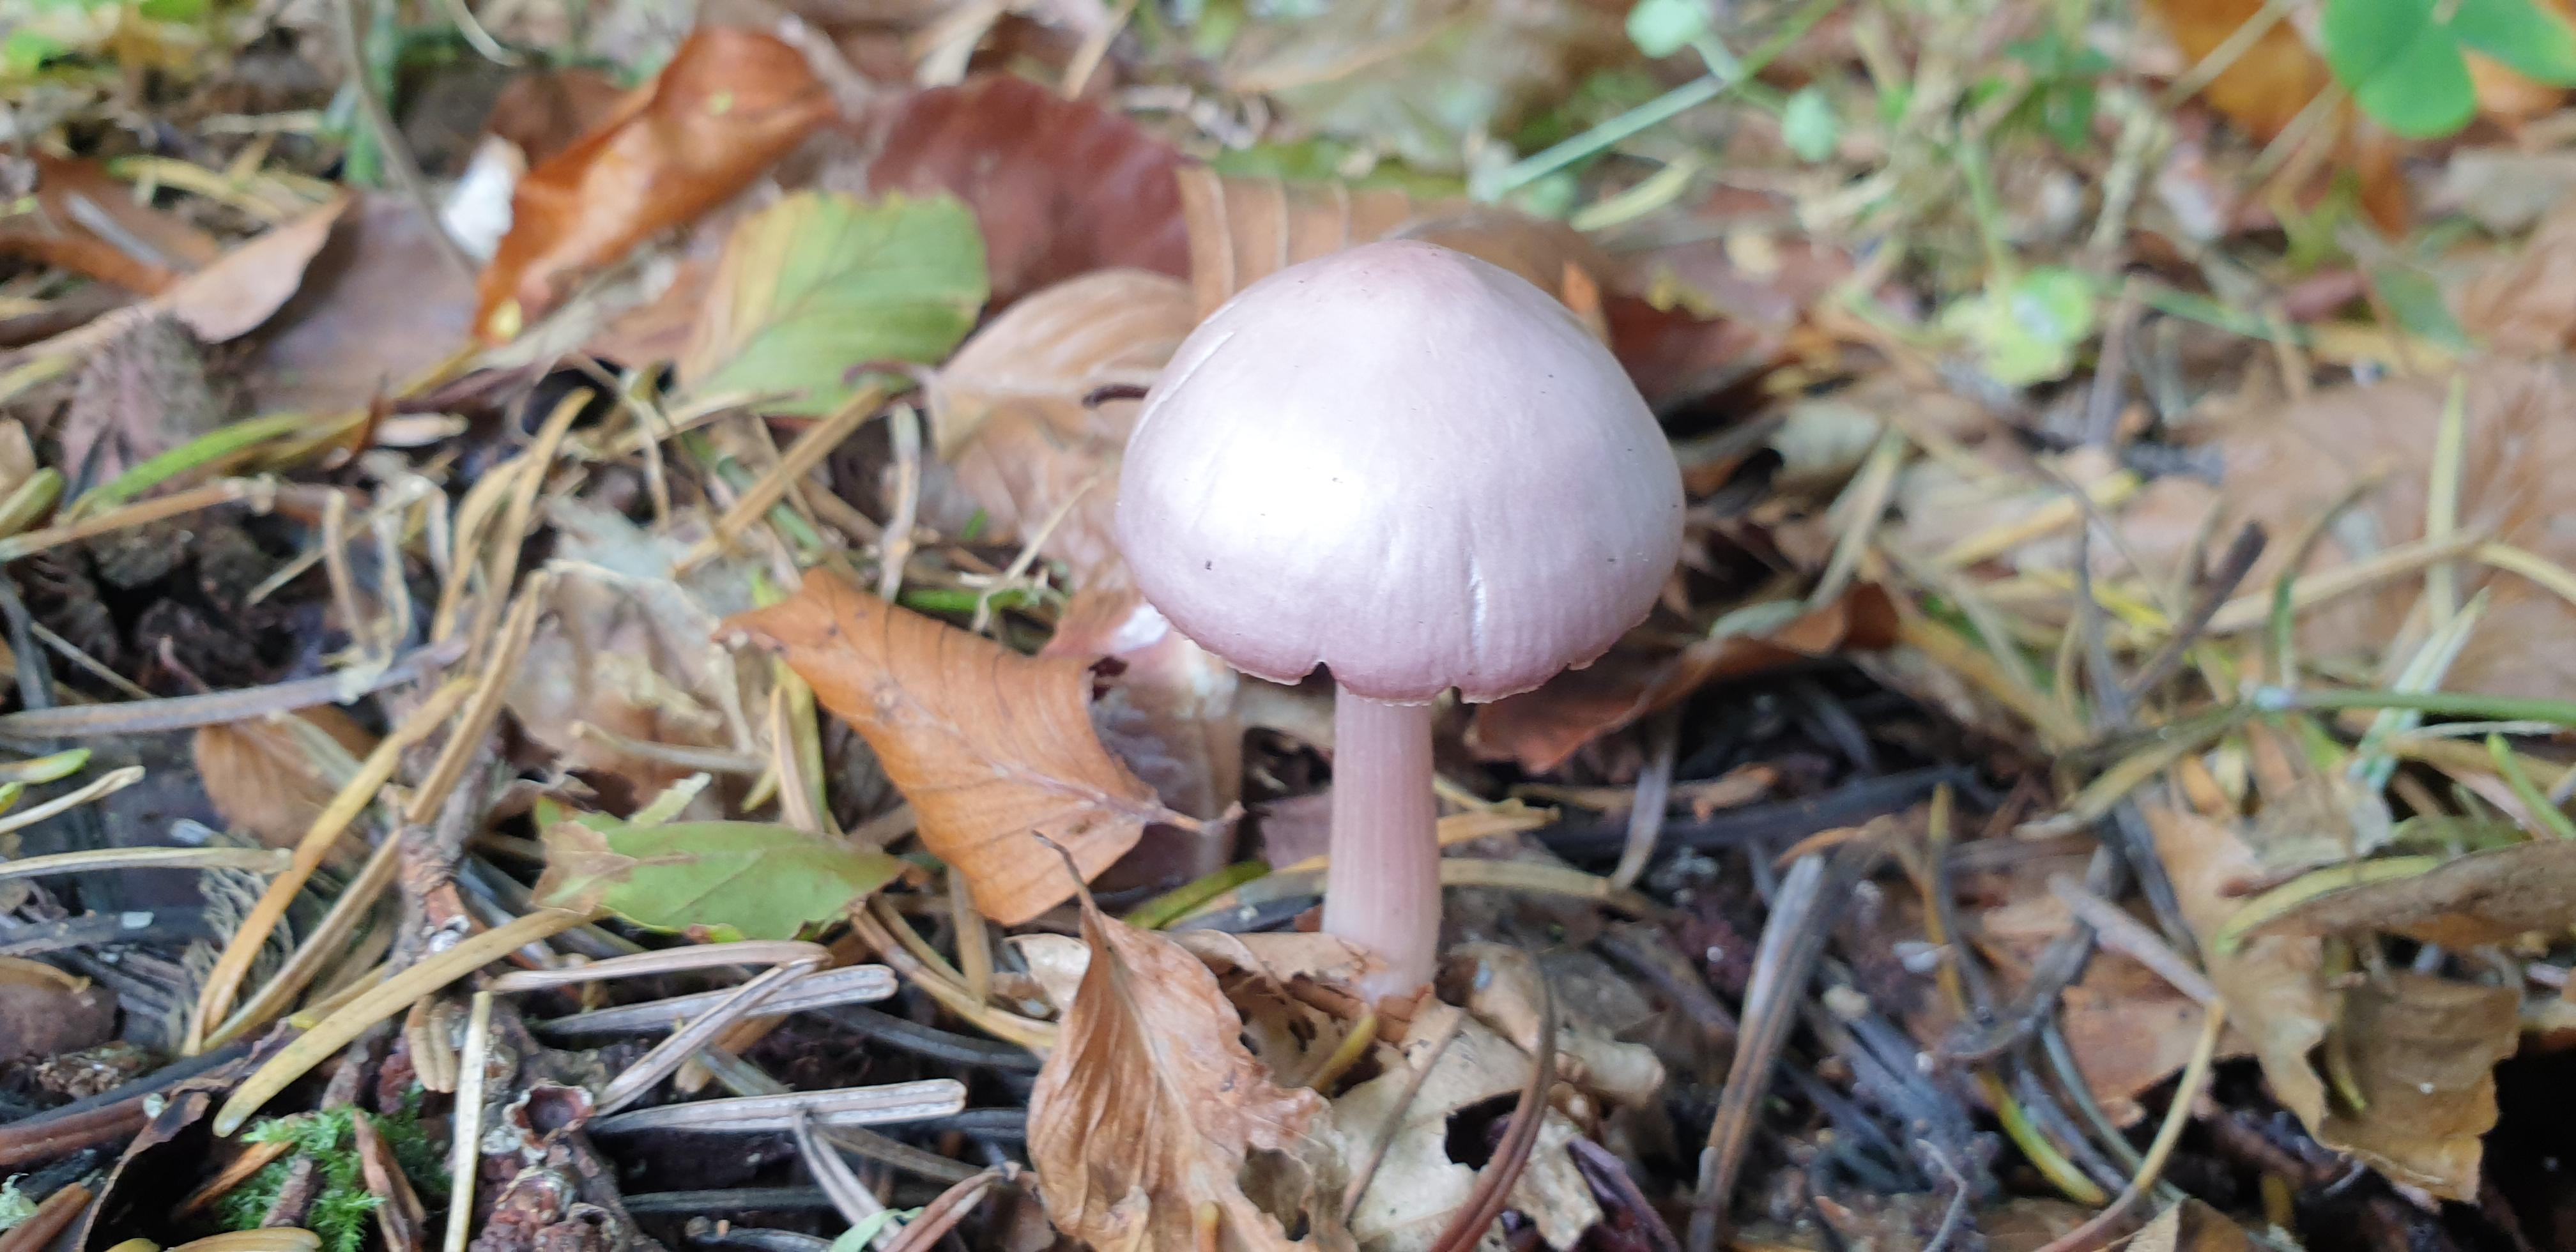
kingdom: Fungi
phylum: Basidiomycota
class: Agaricomycetes
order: Agaricales
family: Mycenaceae
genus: Mycena
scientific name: Mycena rosea
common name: rosa huesvamp
